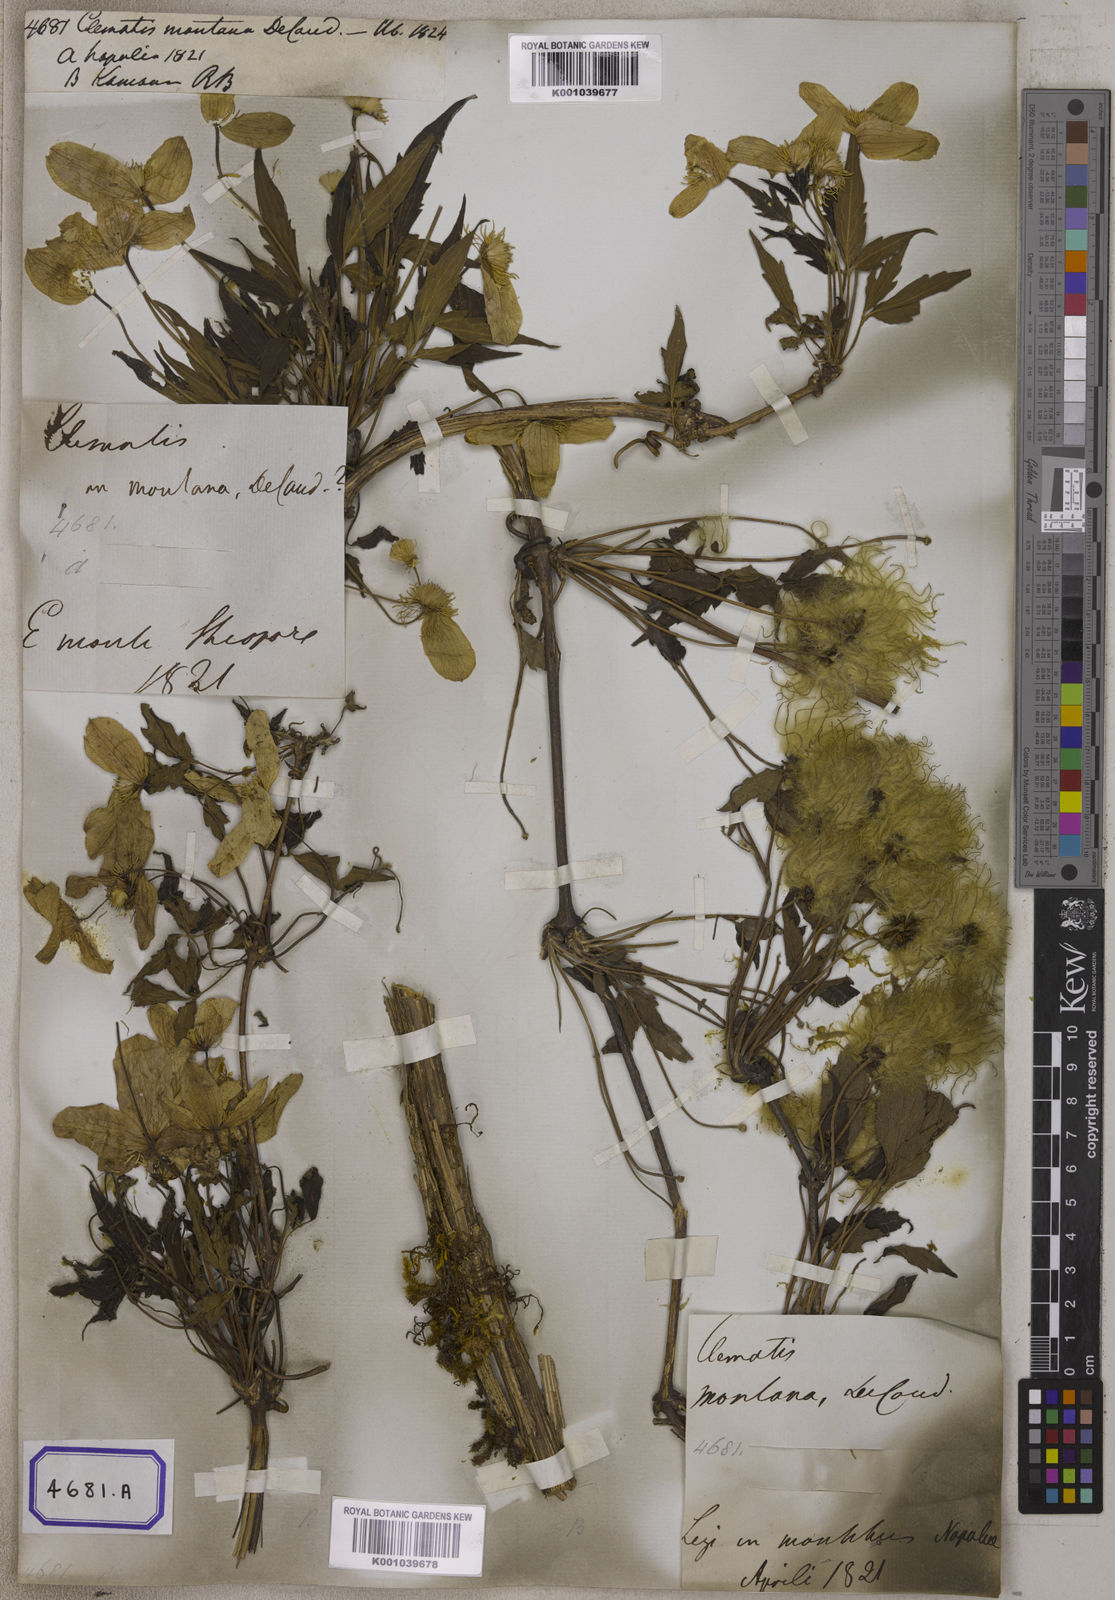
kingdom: Plantae
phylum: Tracheophyta
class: Magnoliopsida
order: Ranunculales
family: Ranunculaceae
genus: Clematis
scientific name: Clematis montana
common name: Himalayan clematis
